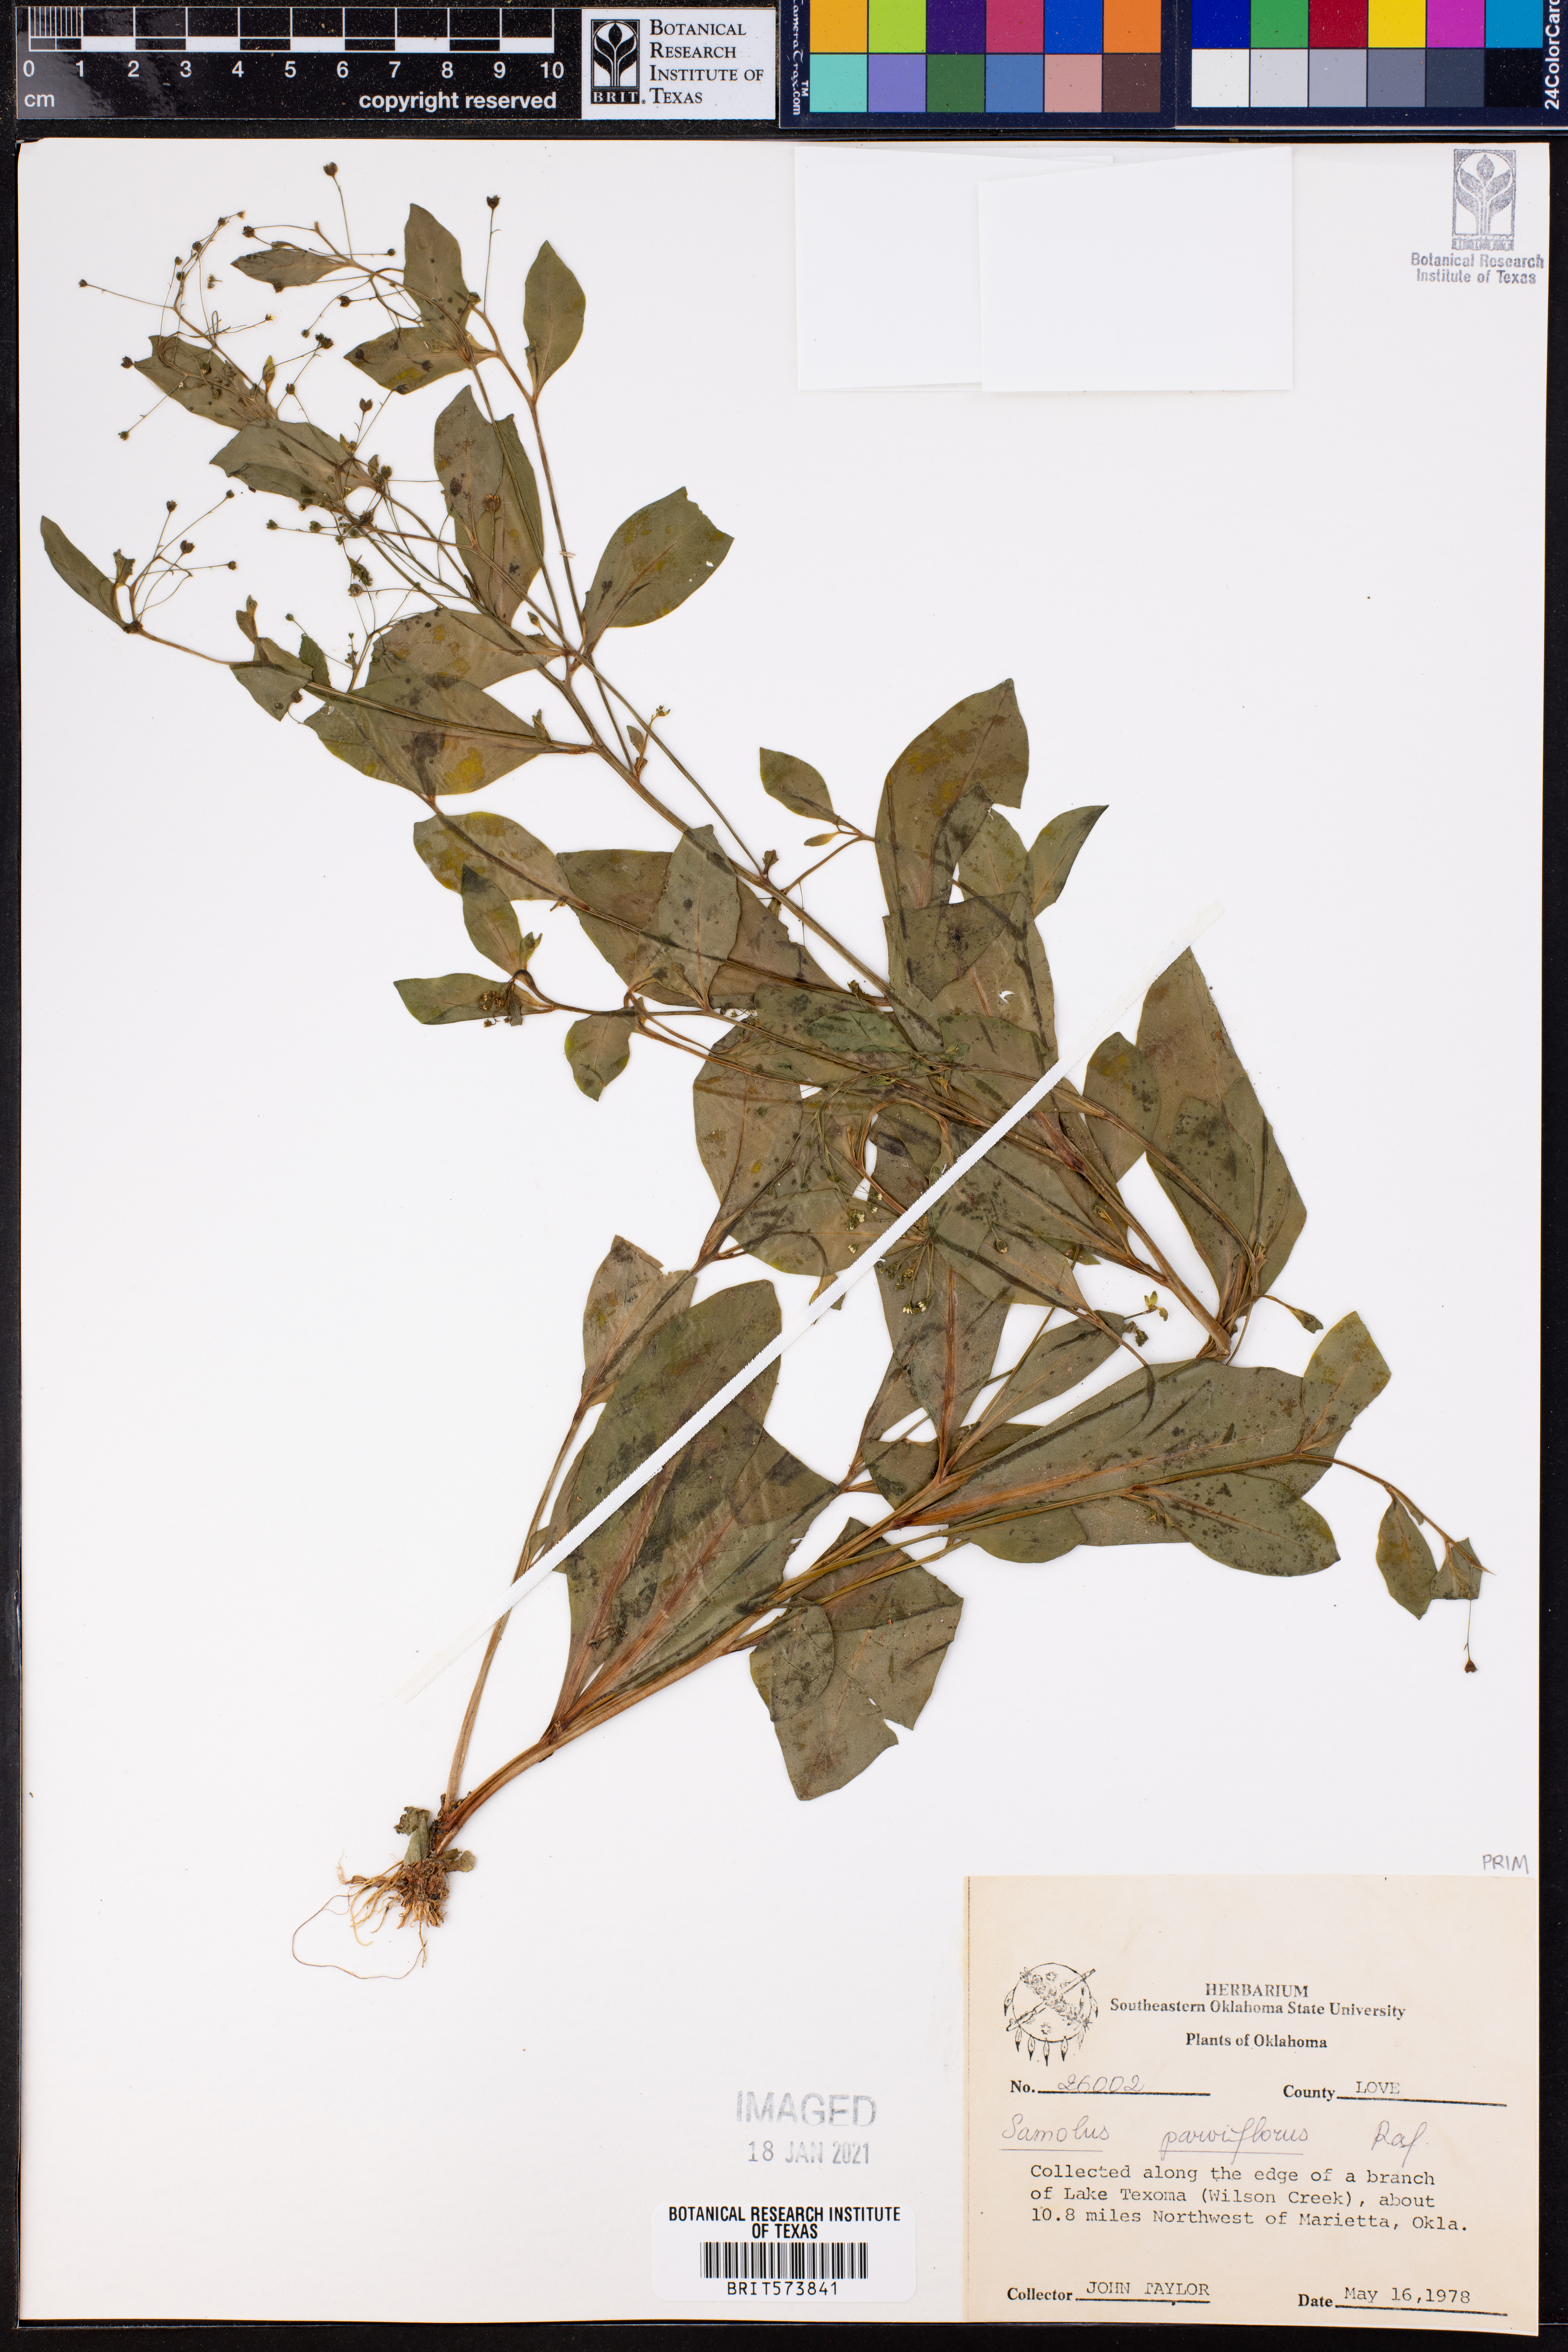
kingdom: Plantae
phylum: Tracheophyta
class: Magnoliopsida
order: Ericales
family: Primulaceae
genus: Samolus
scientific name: Samolus parviflorus
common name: False water pimpernel
